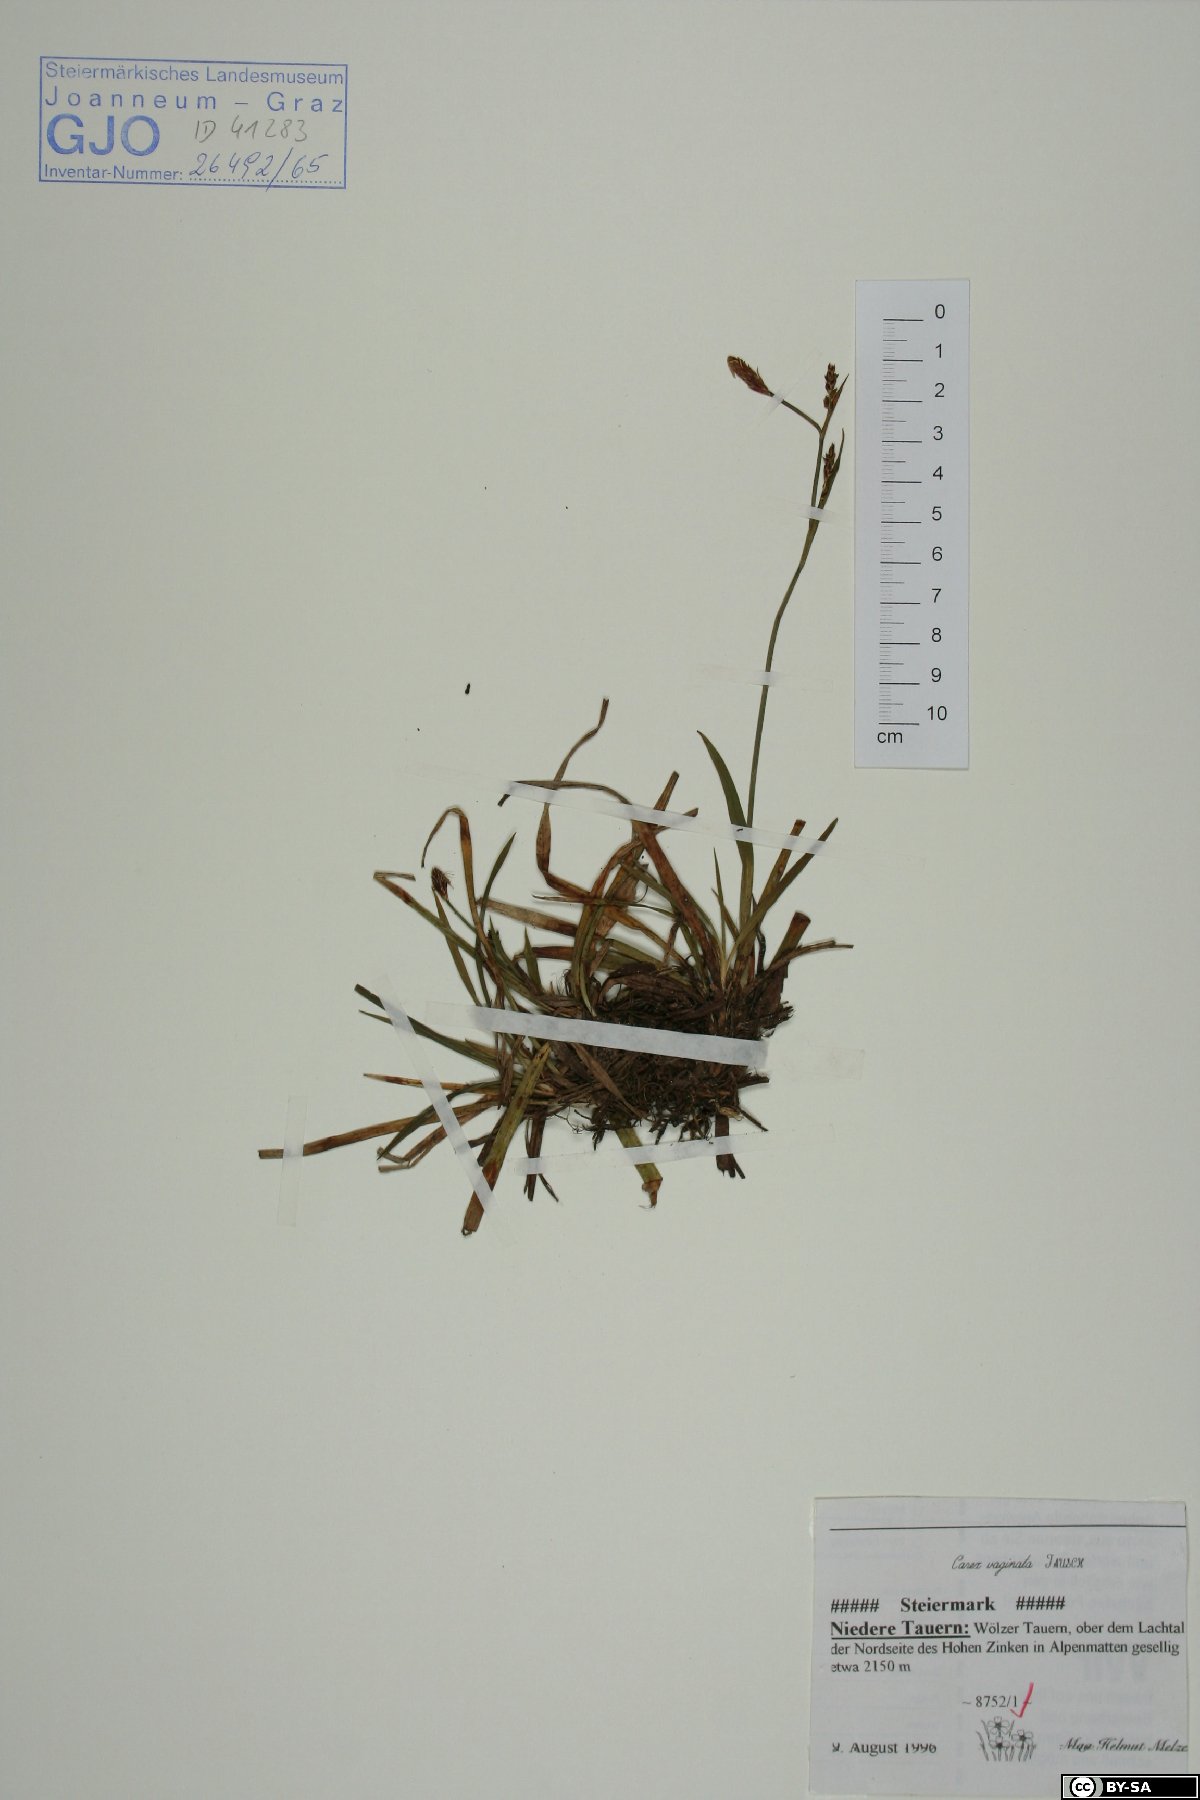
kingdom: Plantae
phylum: Tracheophyta
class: Liliopsida
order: Poales
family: Cyperaceae
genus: Carex
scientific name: Carex vaginata
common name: Sheathed sedge
